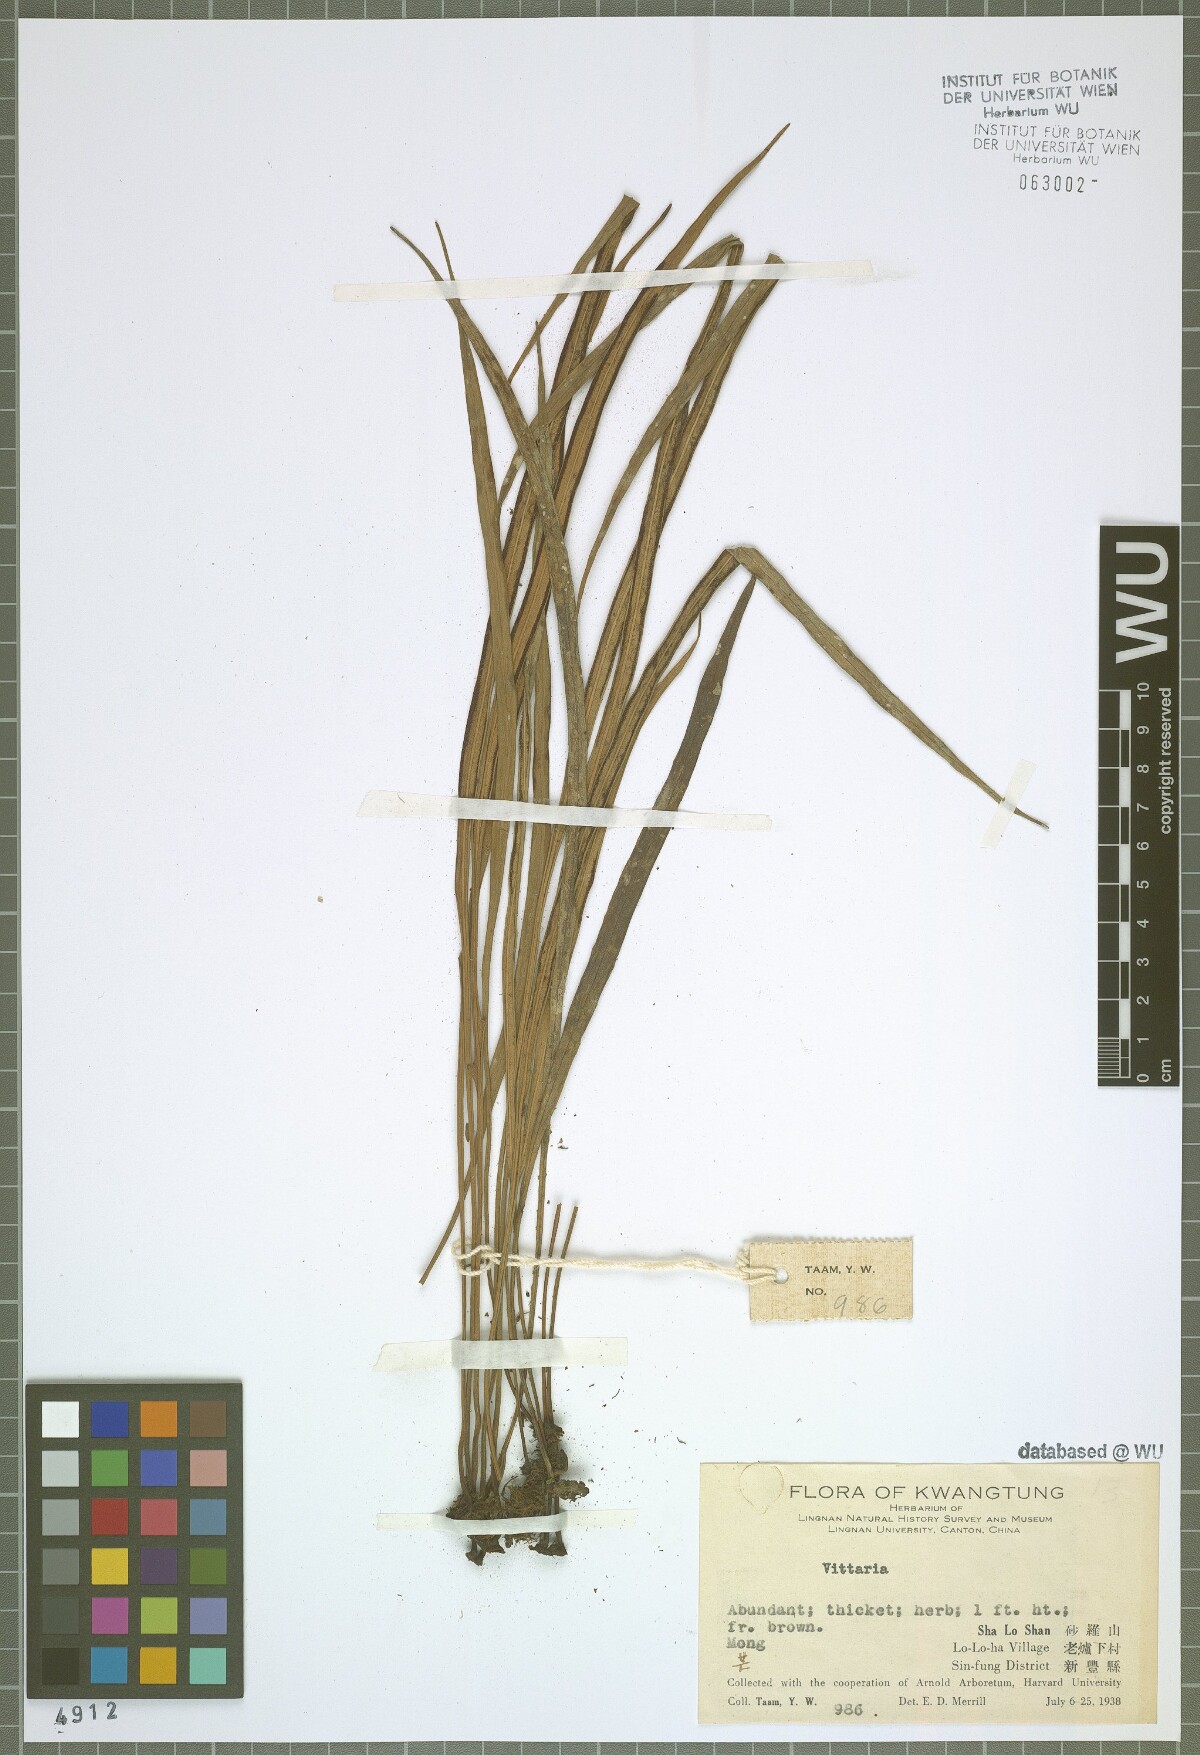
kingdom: Plantae
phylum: Tracheophyta
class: Polypodiopsida
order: Polypodiales
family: Pteridaceae
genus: Vittaria
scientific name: Vittaria
